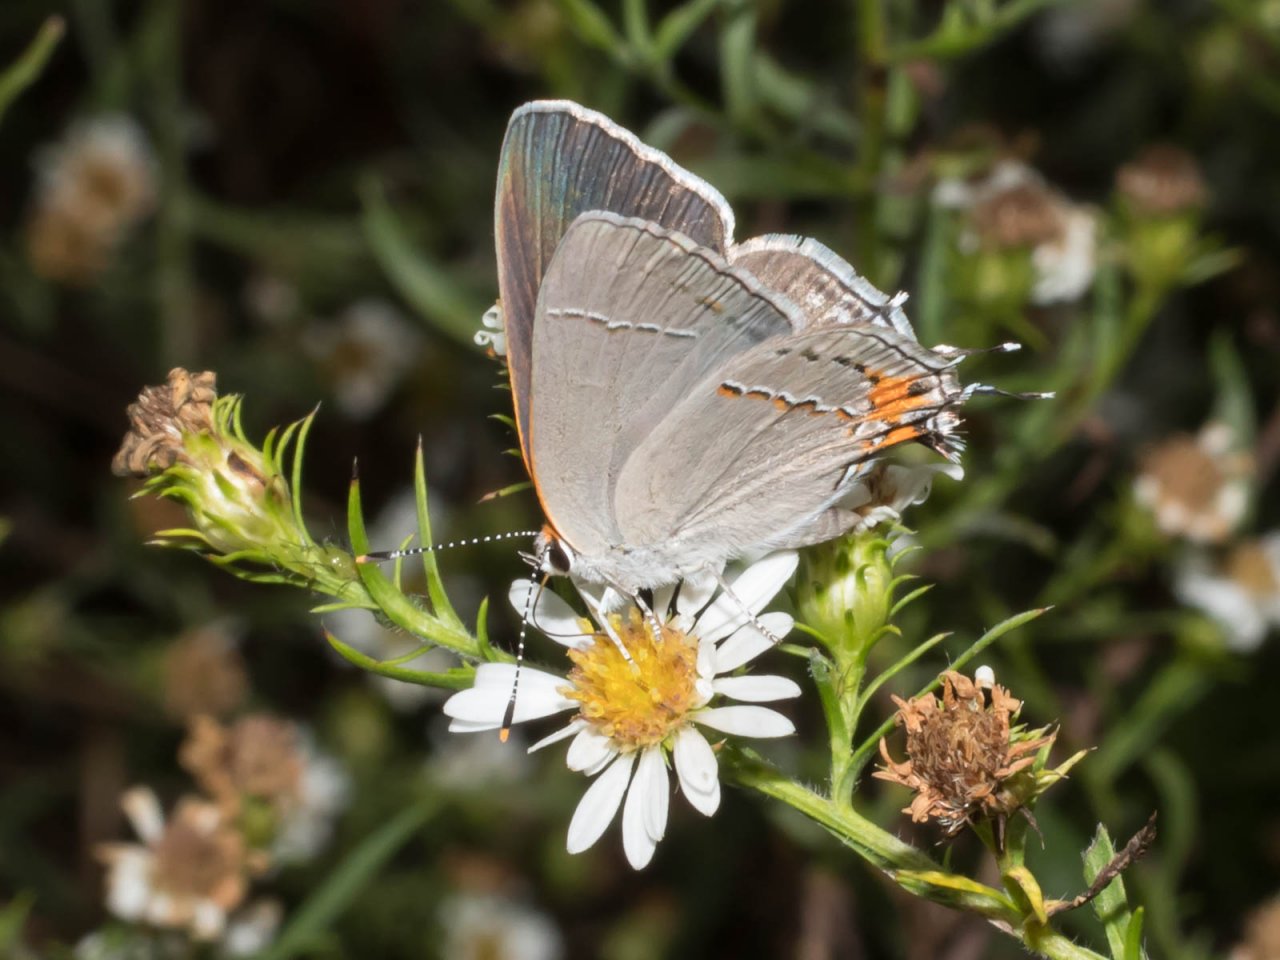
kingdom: Animalia
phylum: Arthropoda
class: Insecta
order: Lepidoptera
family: Lycaenidae
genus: Strymon
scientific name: Strymon melinus
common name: Gray Hairstreak
